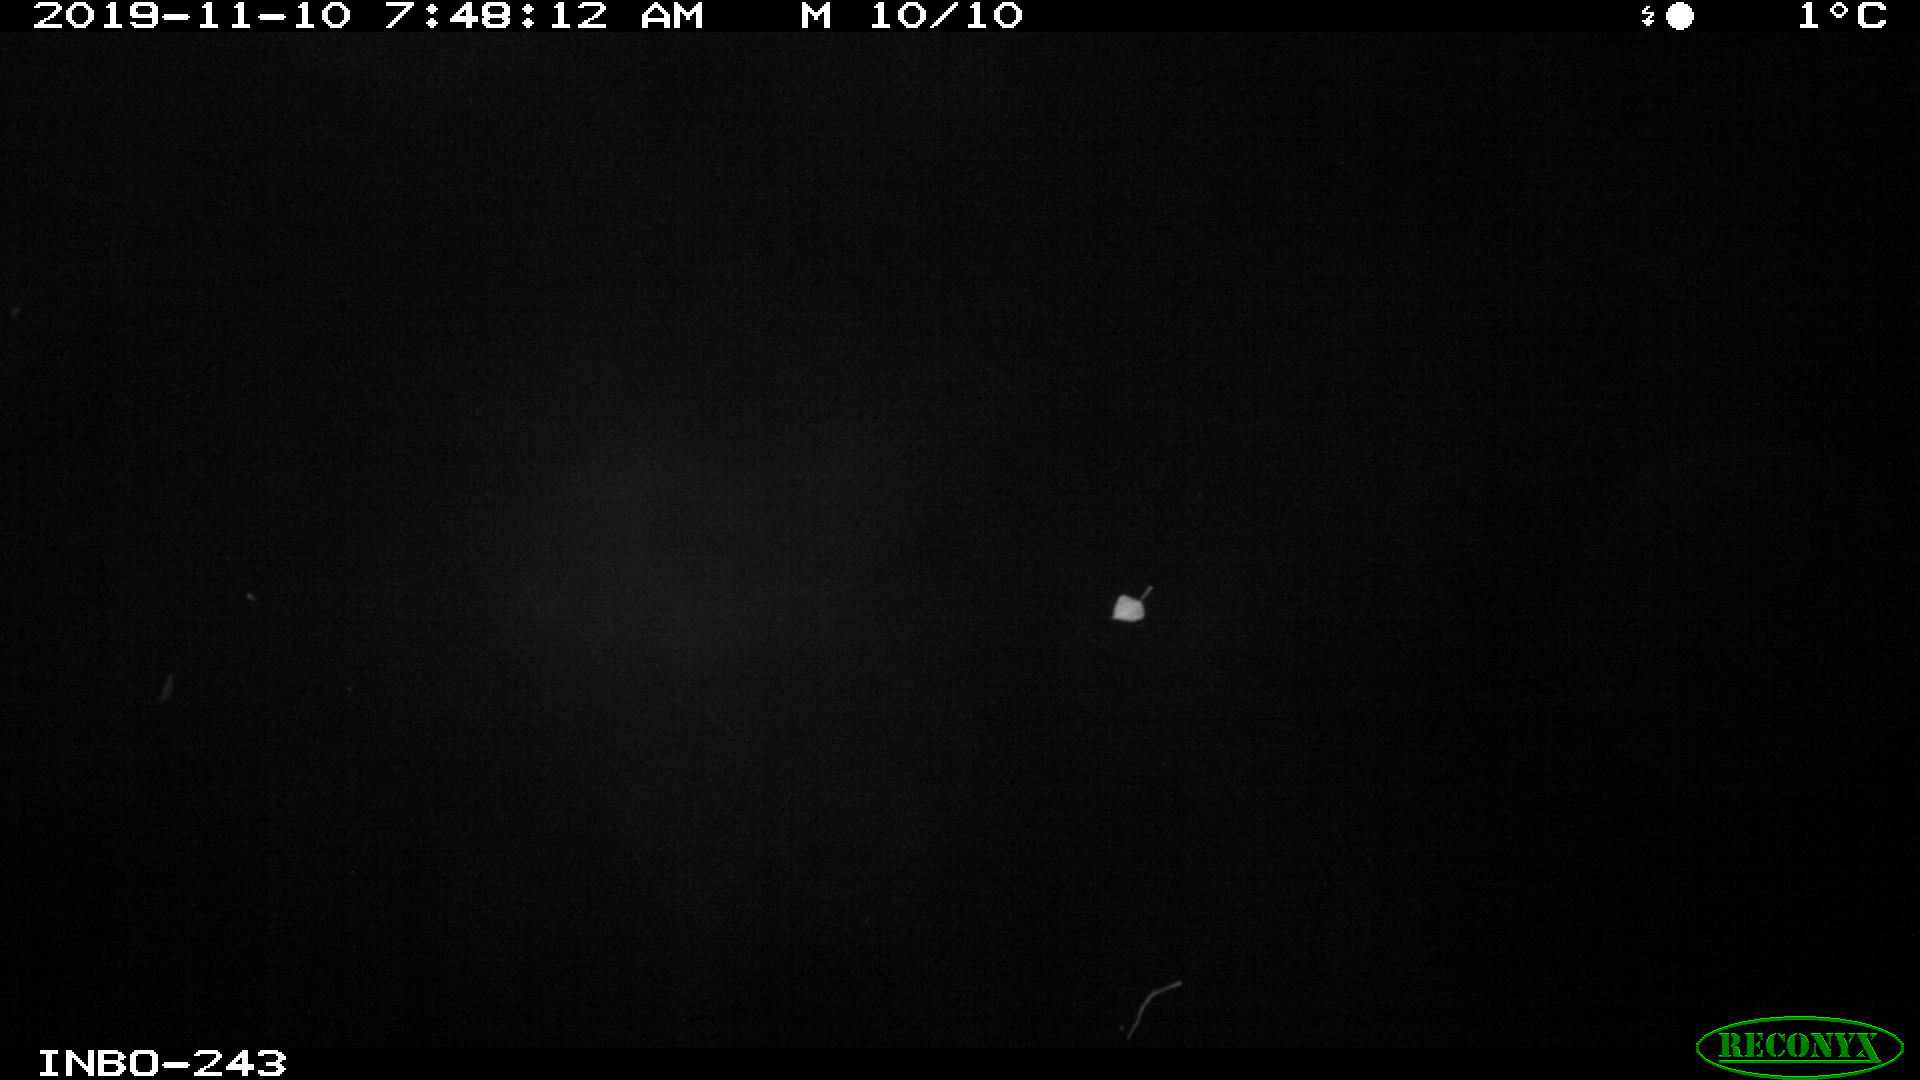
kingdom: Animalia
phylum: Chordata
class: Aves
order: Anseriformes
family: Anatidae
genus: Anas
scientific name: Anas platyrhynchos
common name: Mallard
